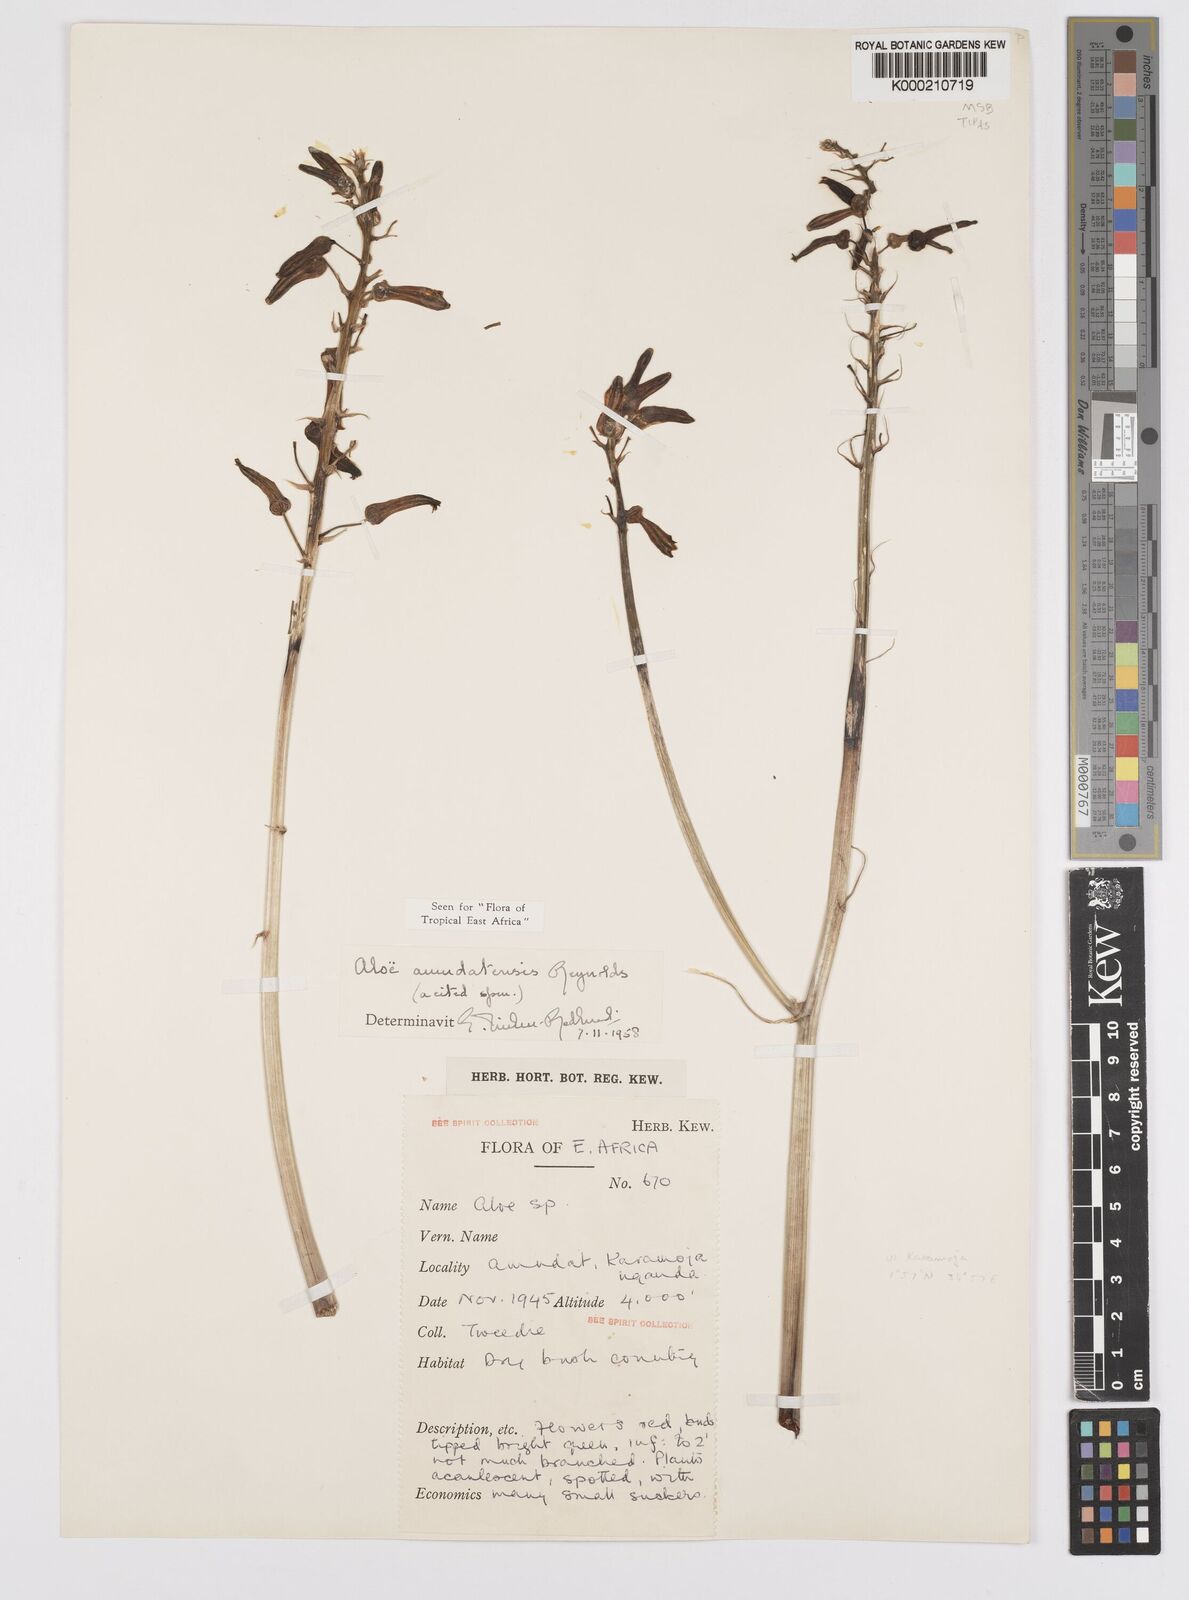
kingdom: Plantae
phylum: Tracheophyta
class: Liliopsida
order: Asparagales
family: Asphodelaceae
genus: Aloe
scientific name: Aloe amudatensis
